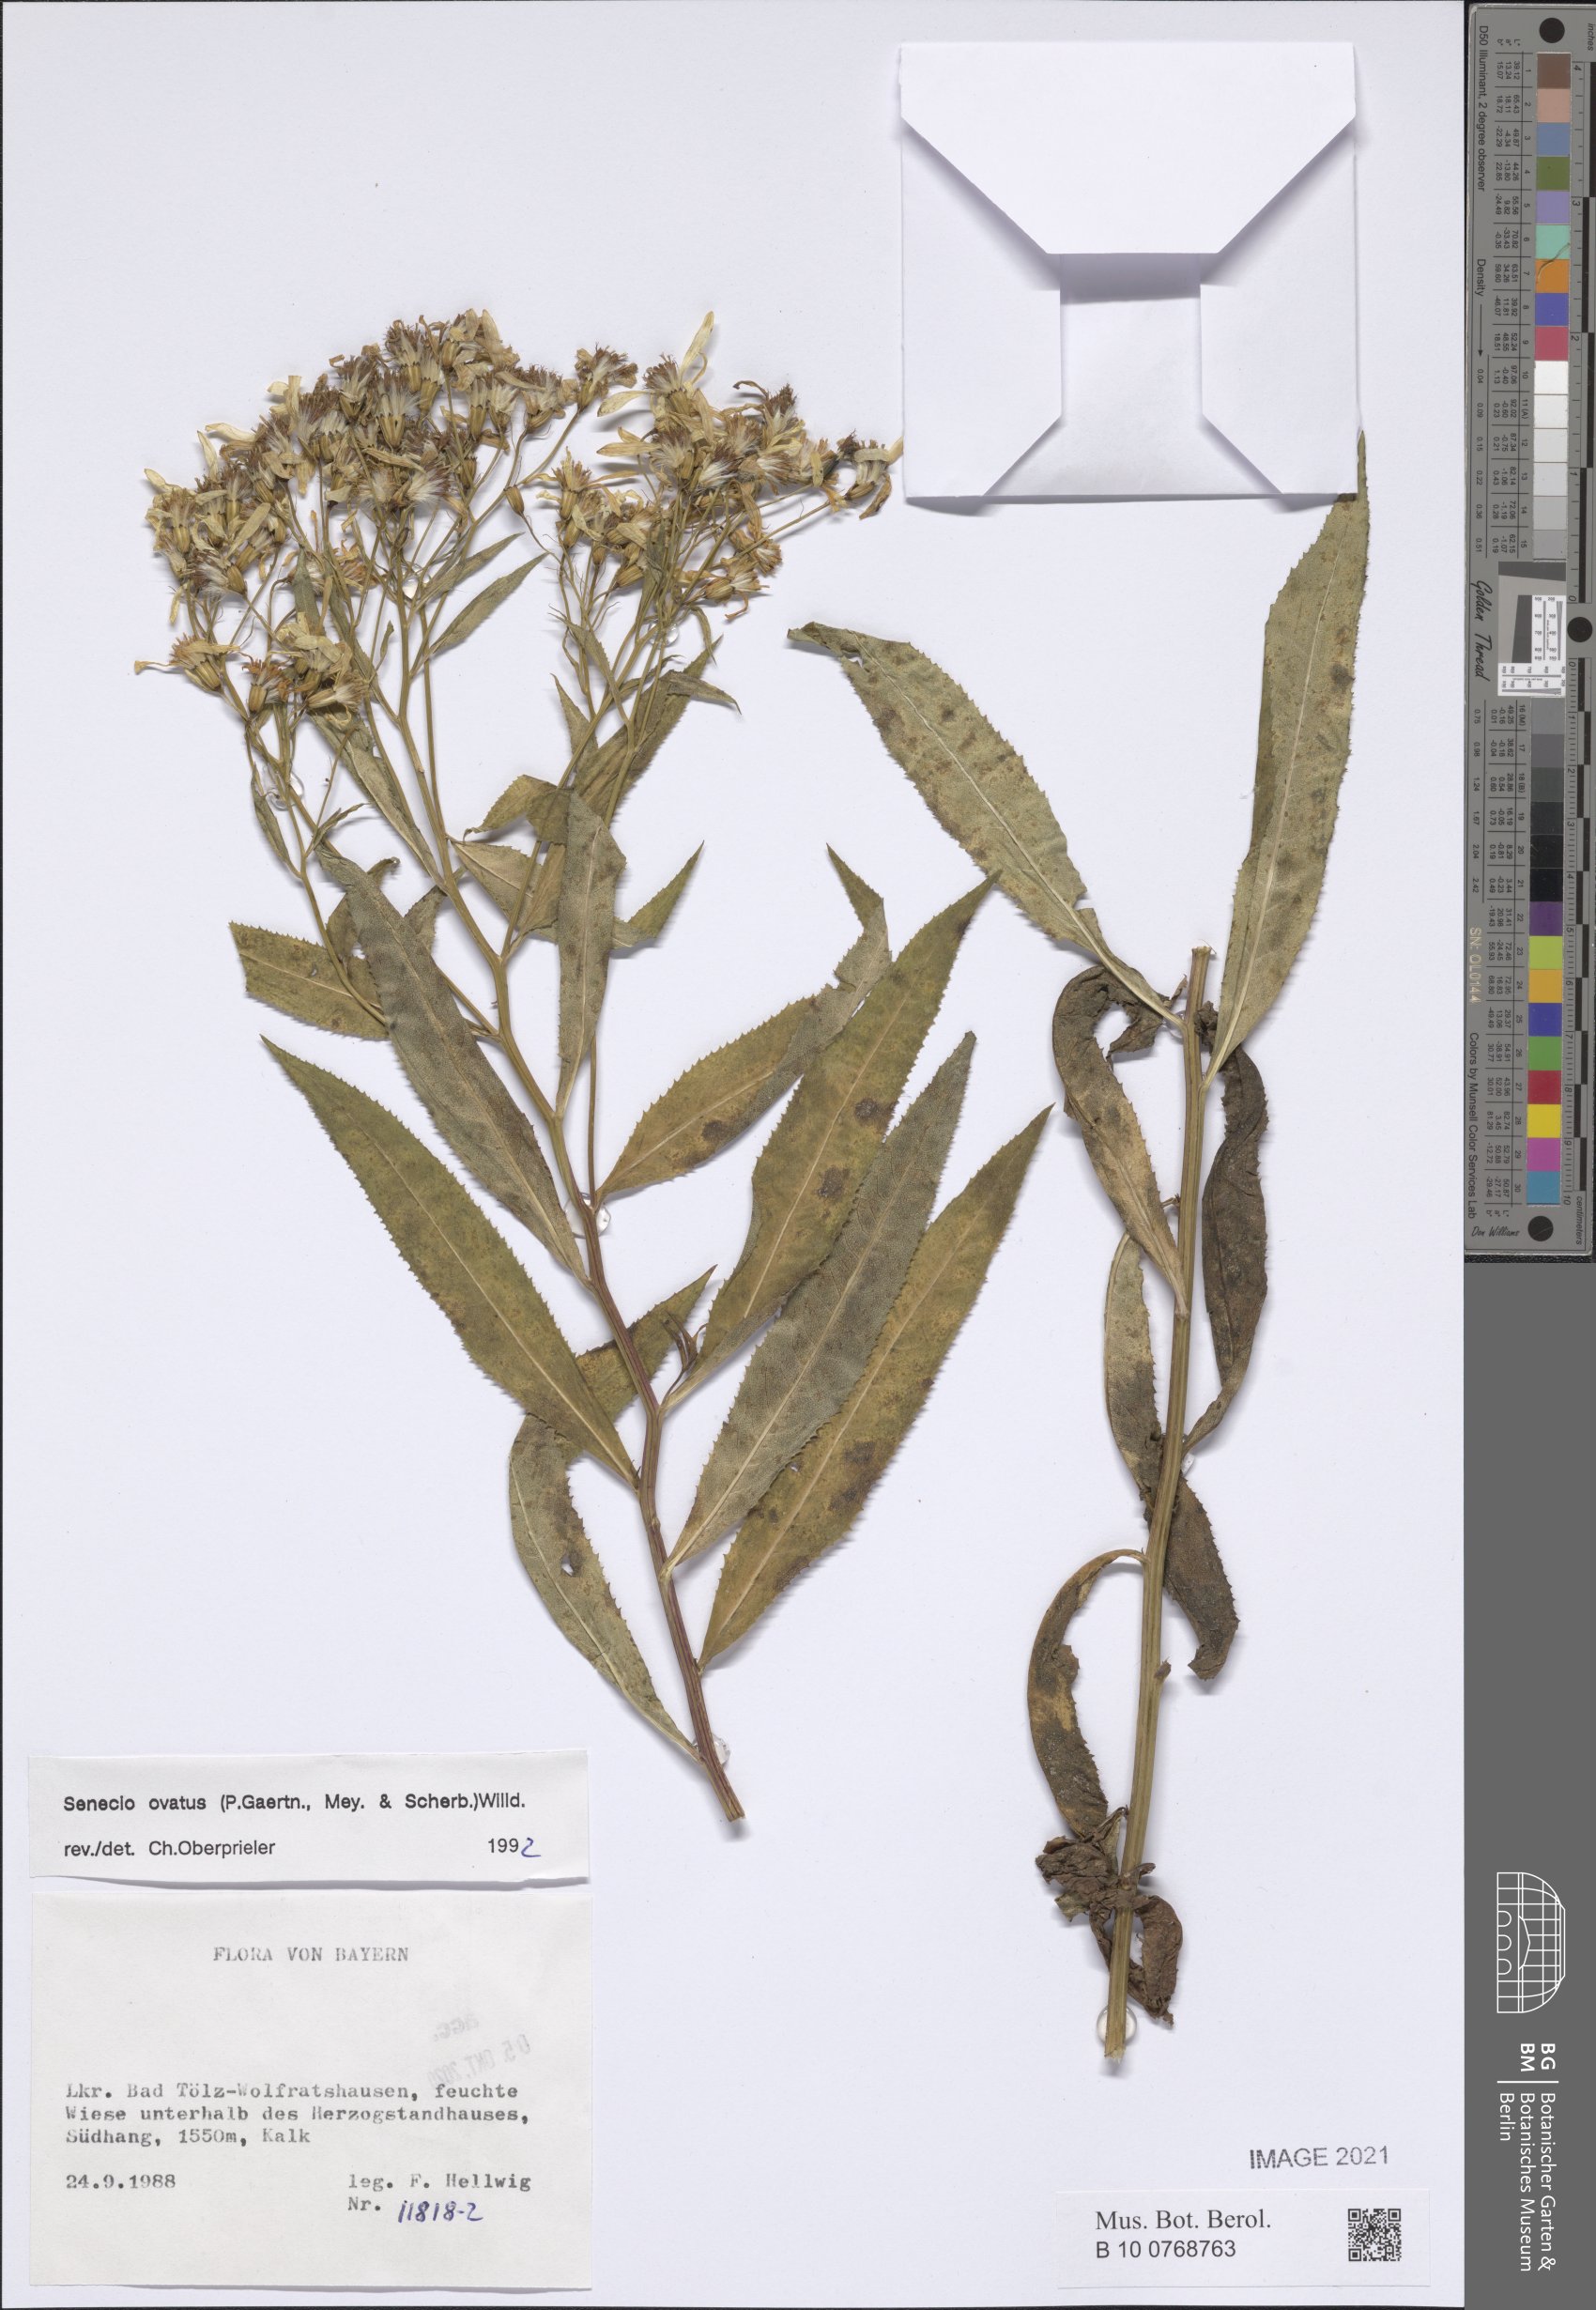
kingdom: Plantae
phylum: Tracheophyta
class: Magnoliopsida
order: Asterales
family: Asteraceae
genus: Senecio
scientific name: Senecio ovatus
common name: Wood ragwort
